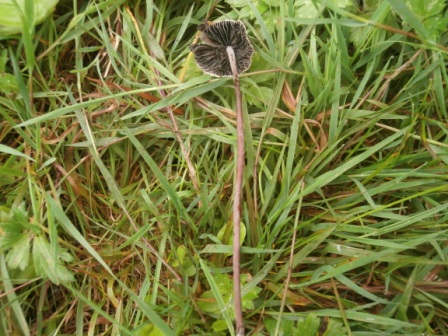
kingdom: Fungi
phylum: Basidiomycota
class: Agaricomycetes
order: Agaricales
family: Bolbitiaceae
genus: Panaeolus
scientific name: Panaeolus acuminatus
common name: høj glanshat
